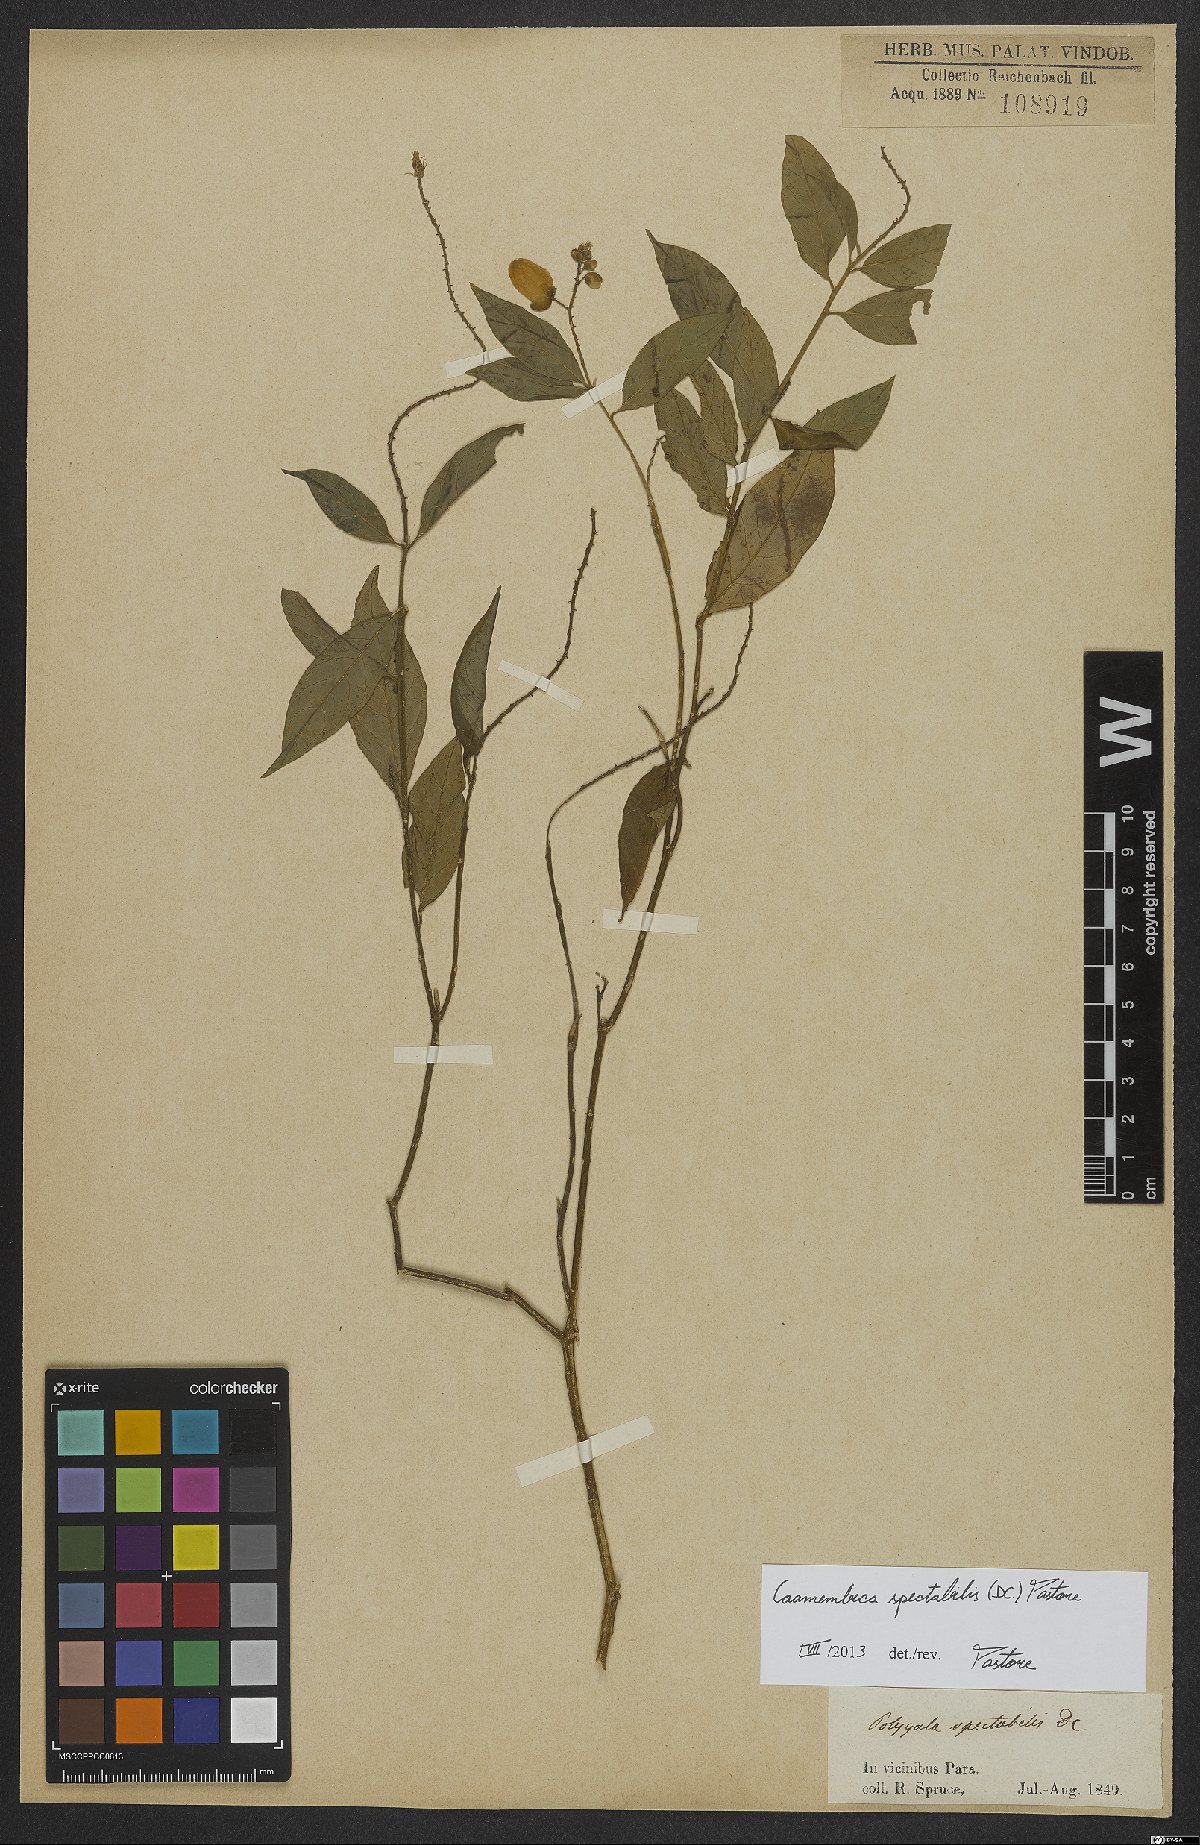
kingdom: Plantae
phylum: Tracheophyta
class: Magnoliopsida
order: Fabales
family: Polygalaceae
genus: Caamembeca
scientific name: Caamembeca spectabilis
